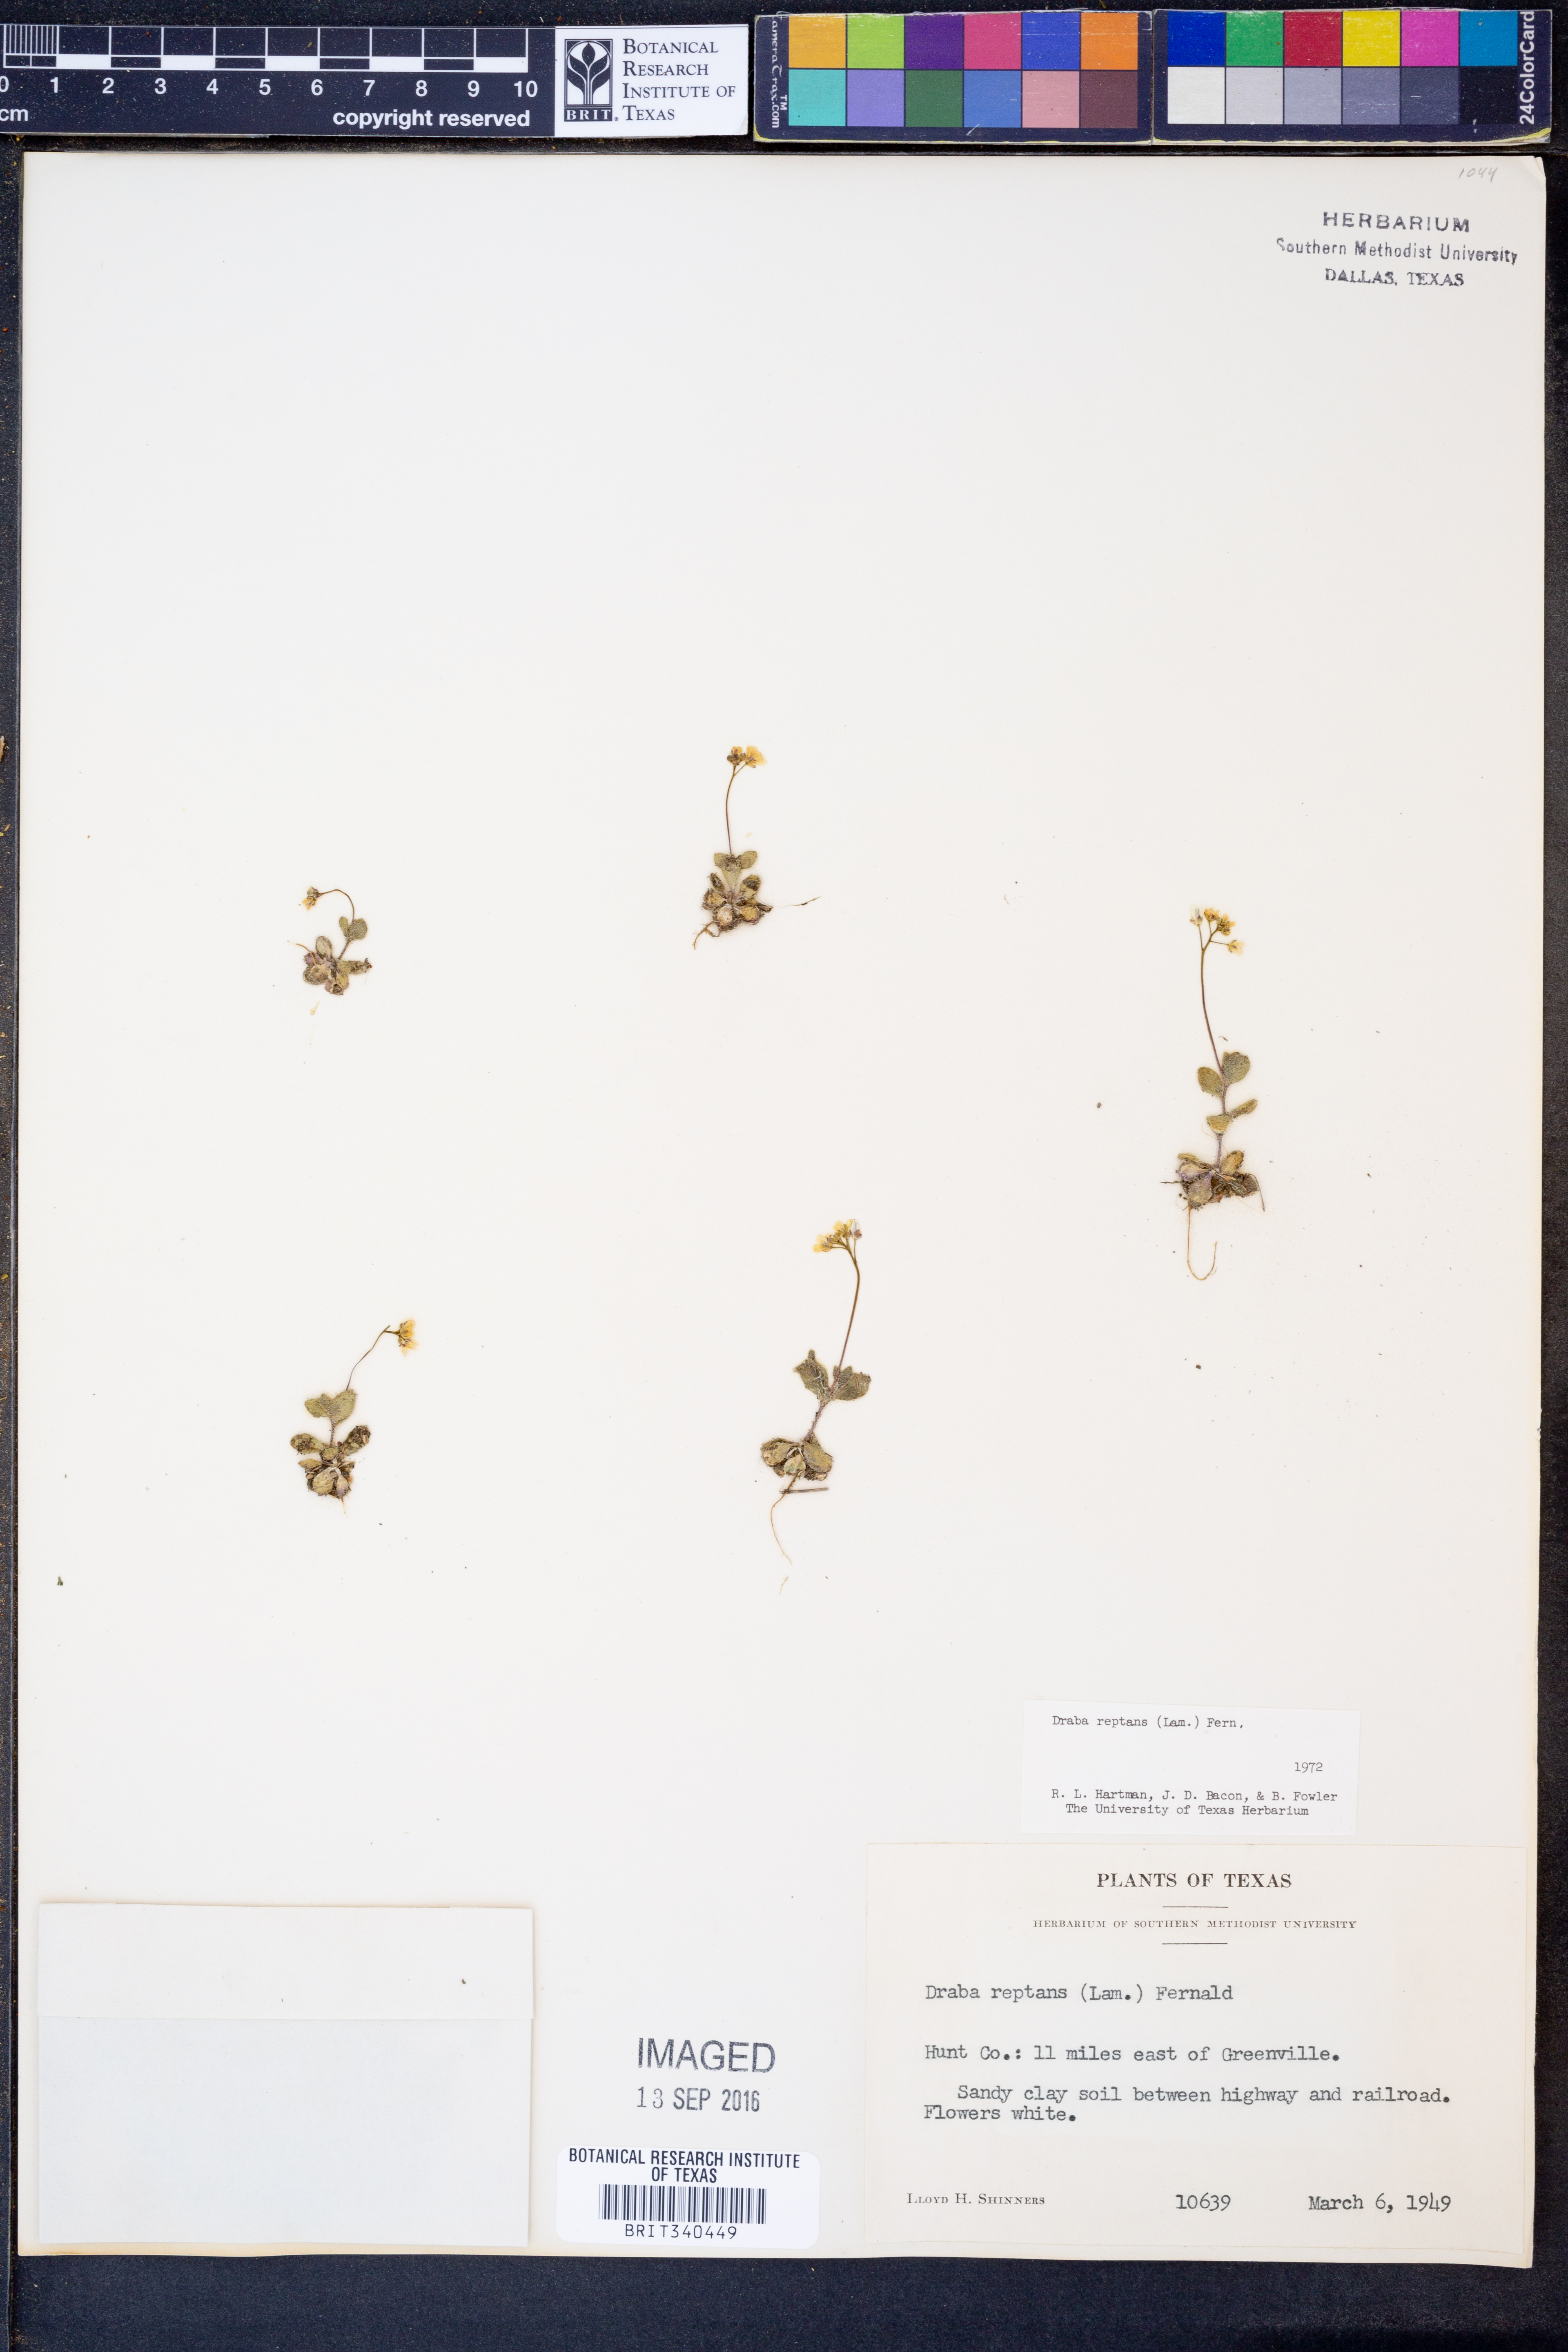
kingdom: Plantae
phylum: Tracheophyta
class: Magnoliopsida
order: Brassicales
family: Brassicaceae
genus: Tomostima
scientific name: Tomostima reptans
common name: Carolina draba
